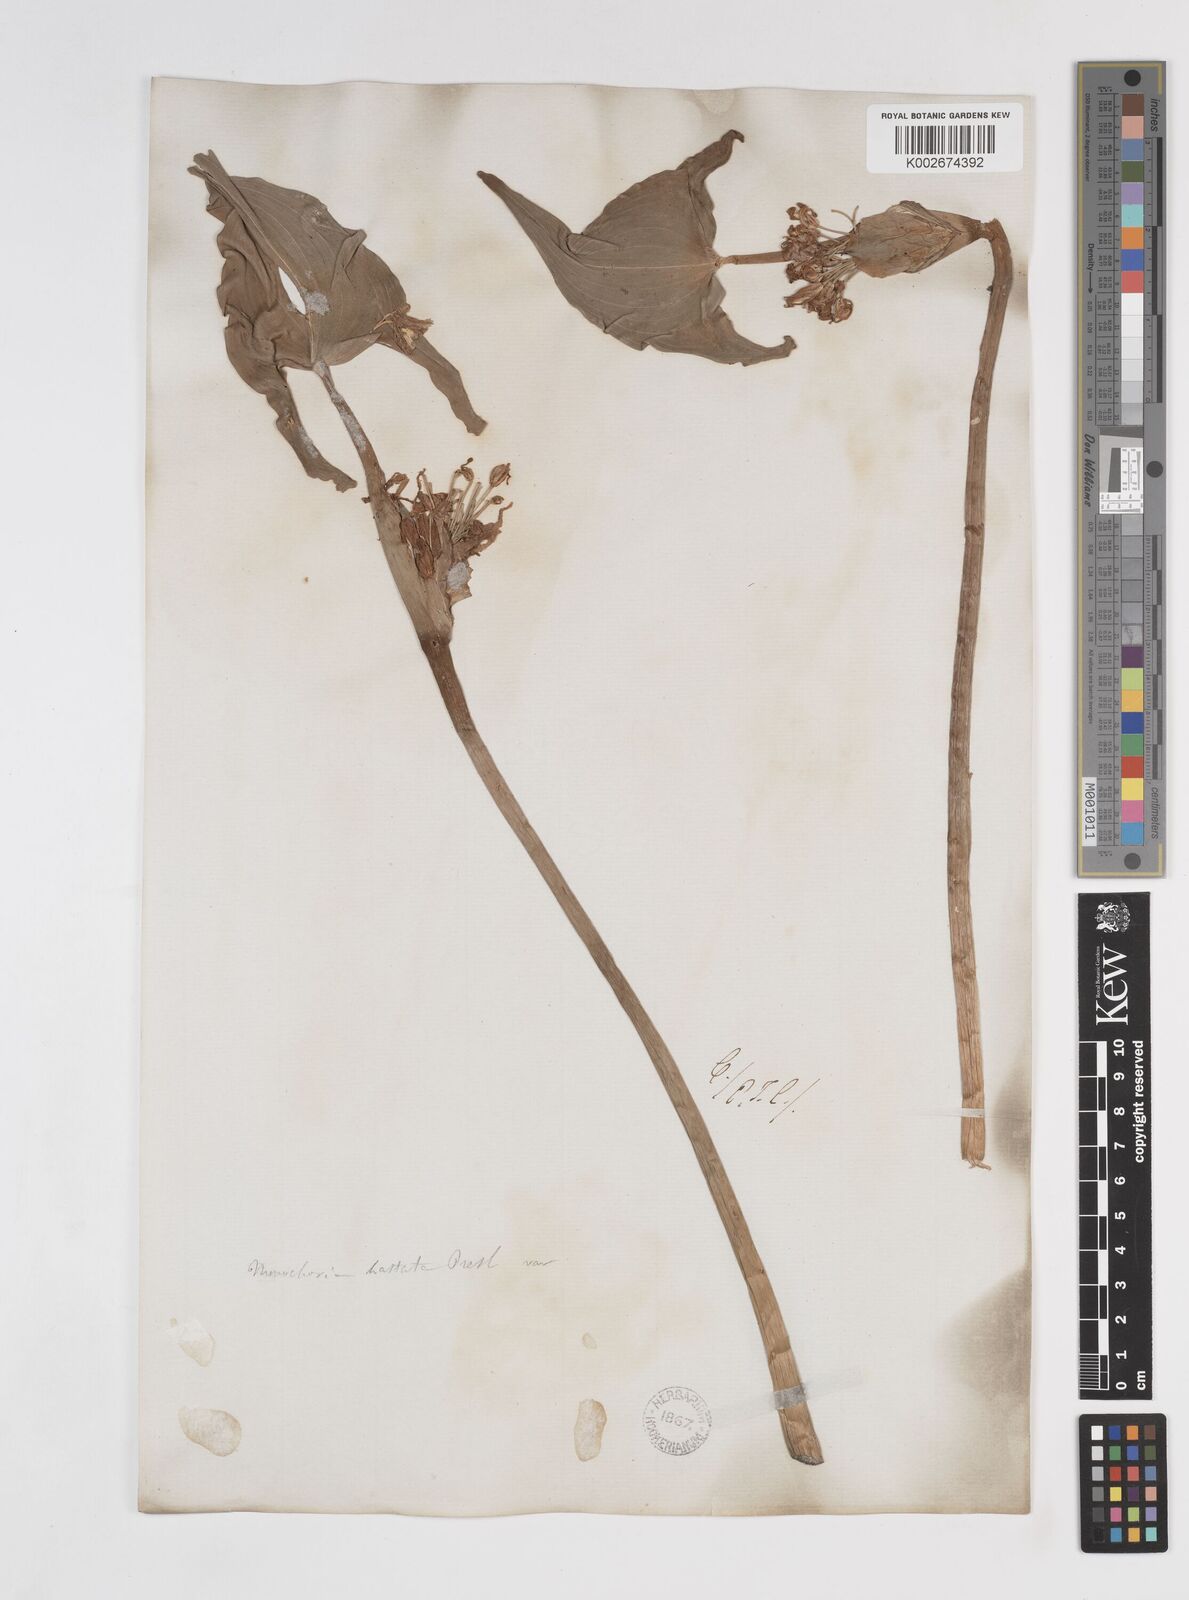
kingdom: Plantae
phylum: Tracheophyta
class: Liliopsida
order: Commelinales
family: Pontederiaceae
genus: Pontederia
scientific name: Pontederia hastata
